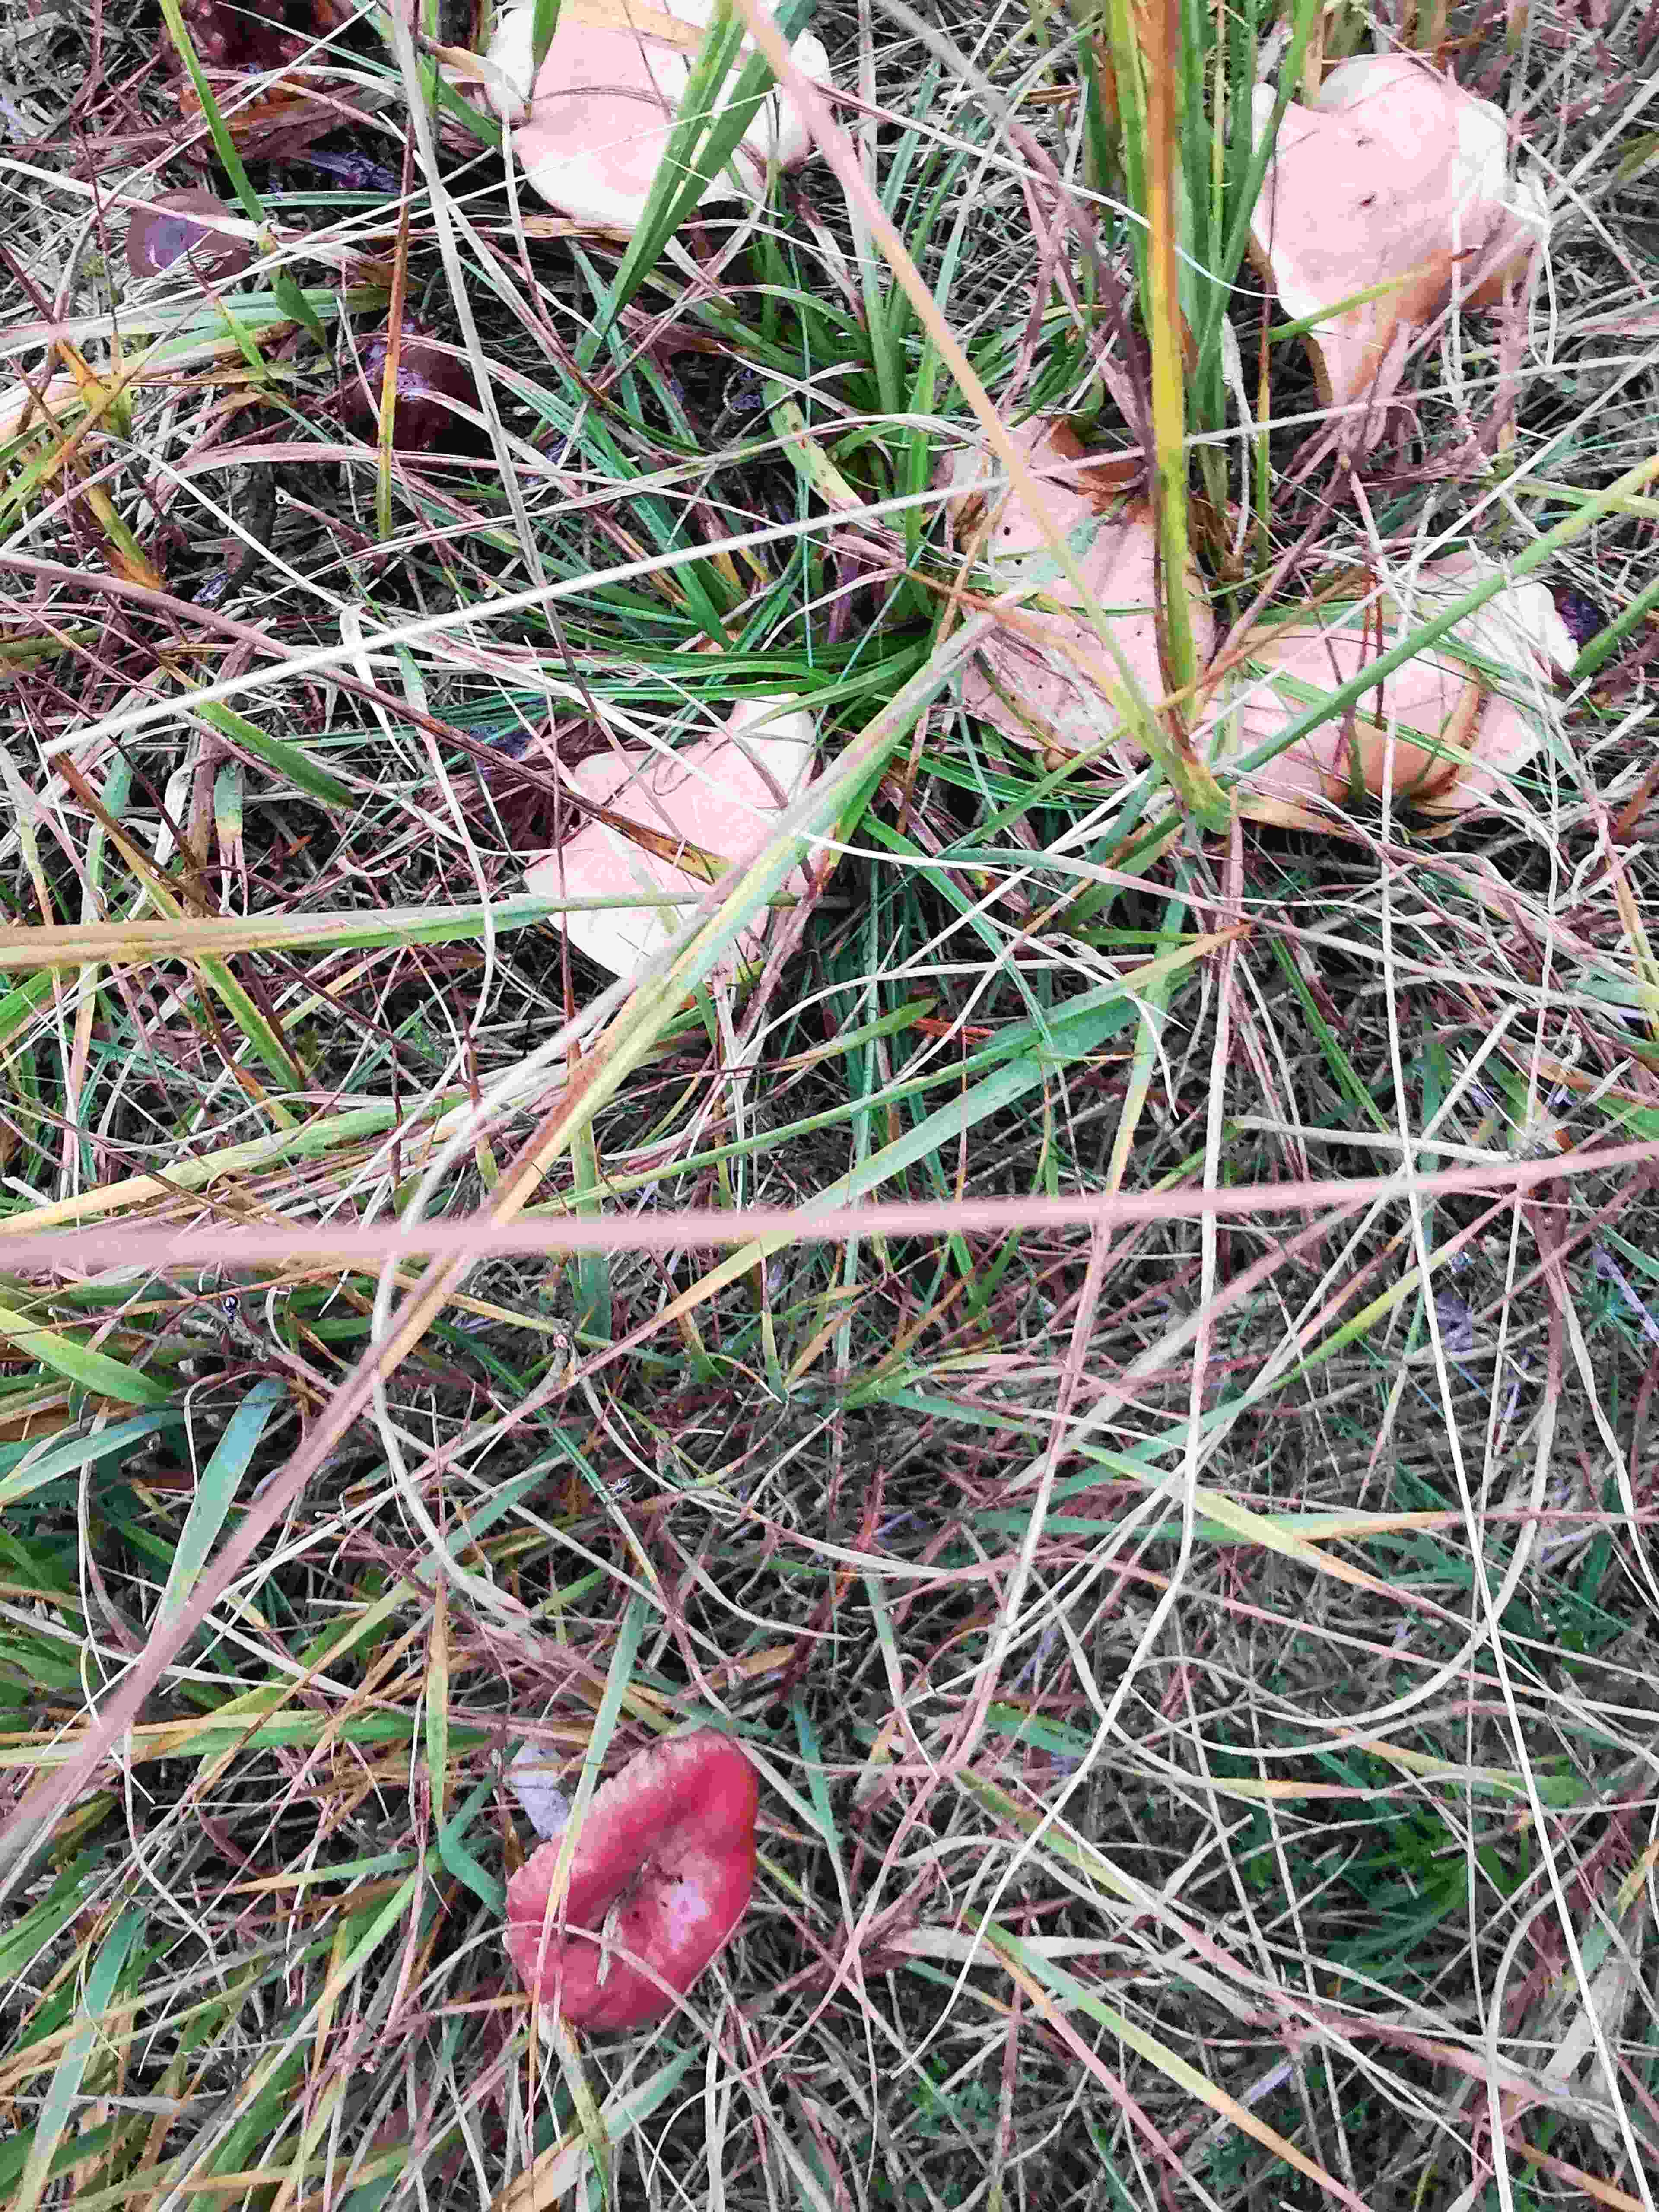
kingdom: Fungi
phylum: Basidiomycota
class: Agaricomycetes
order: Boletales
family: Gomphidiaceae
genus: Gomphidius
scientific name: Gomphidius roseus
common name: rosenrød slimslør
